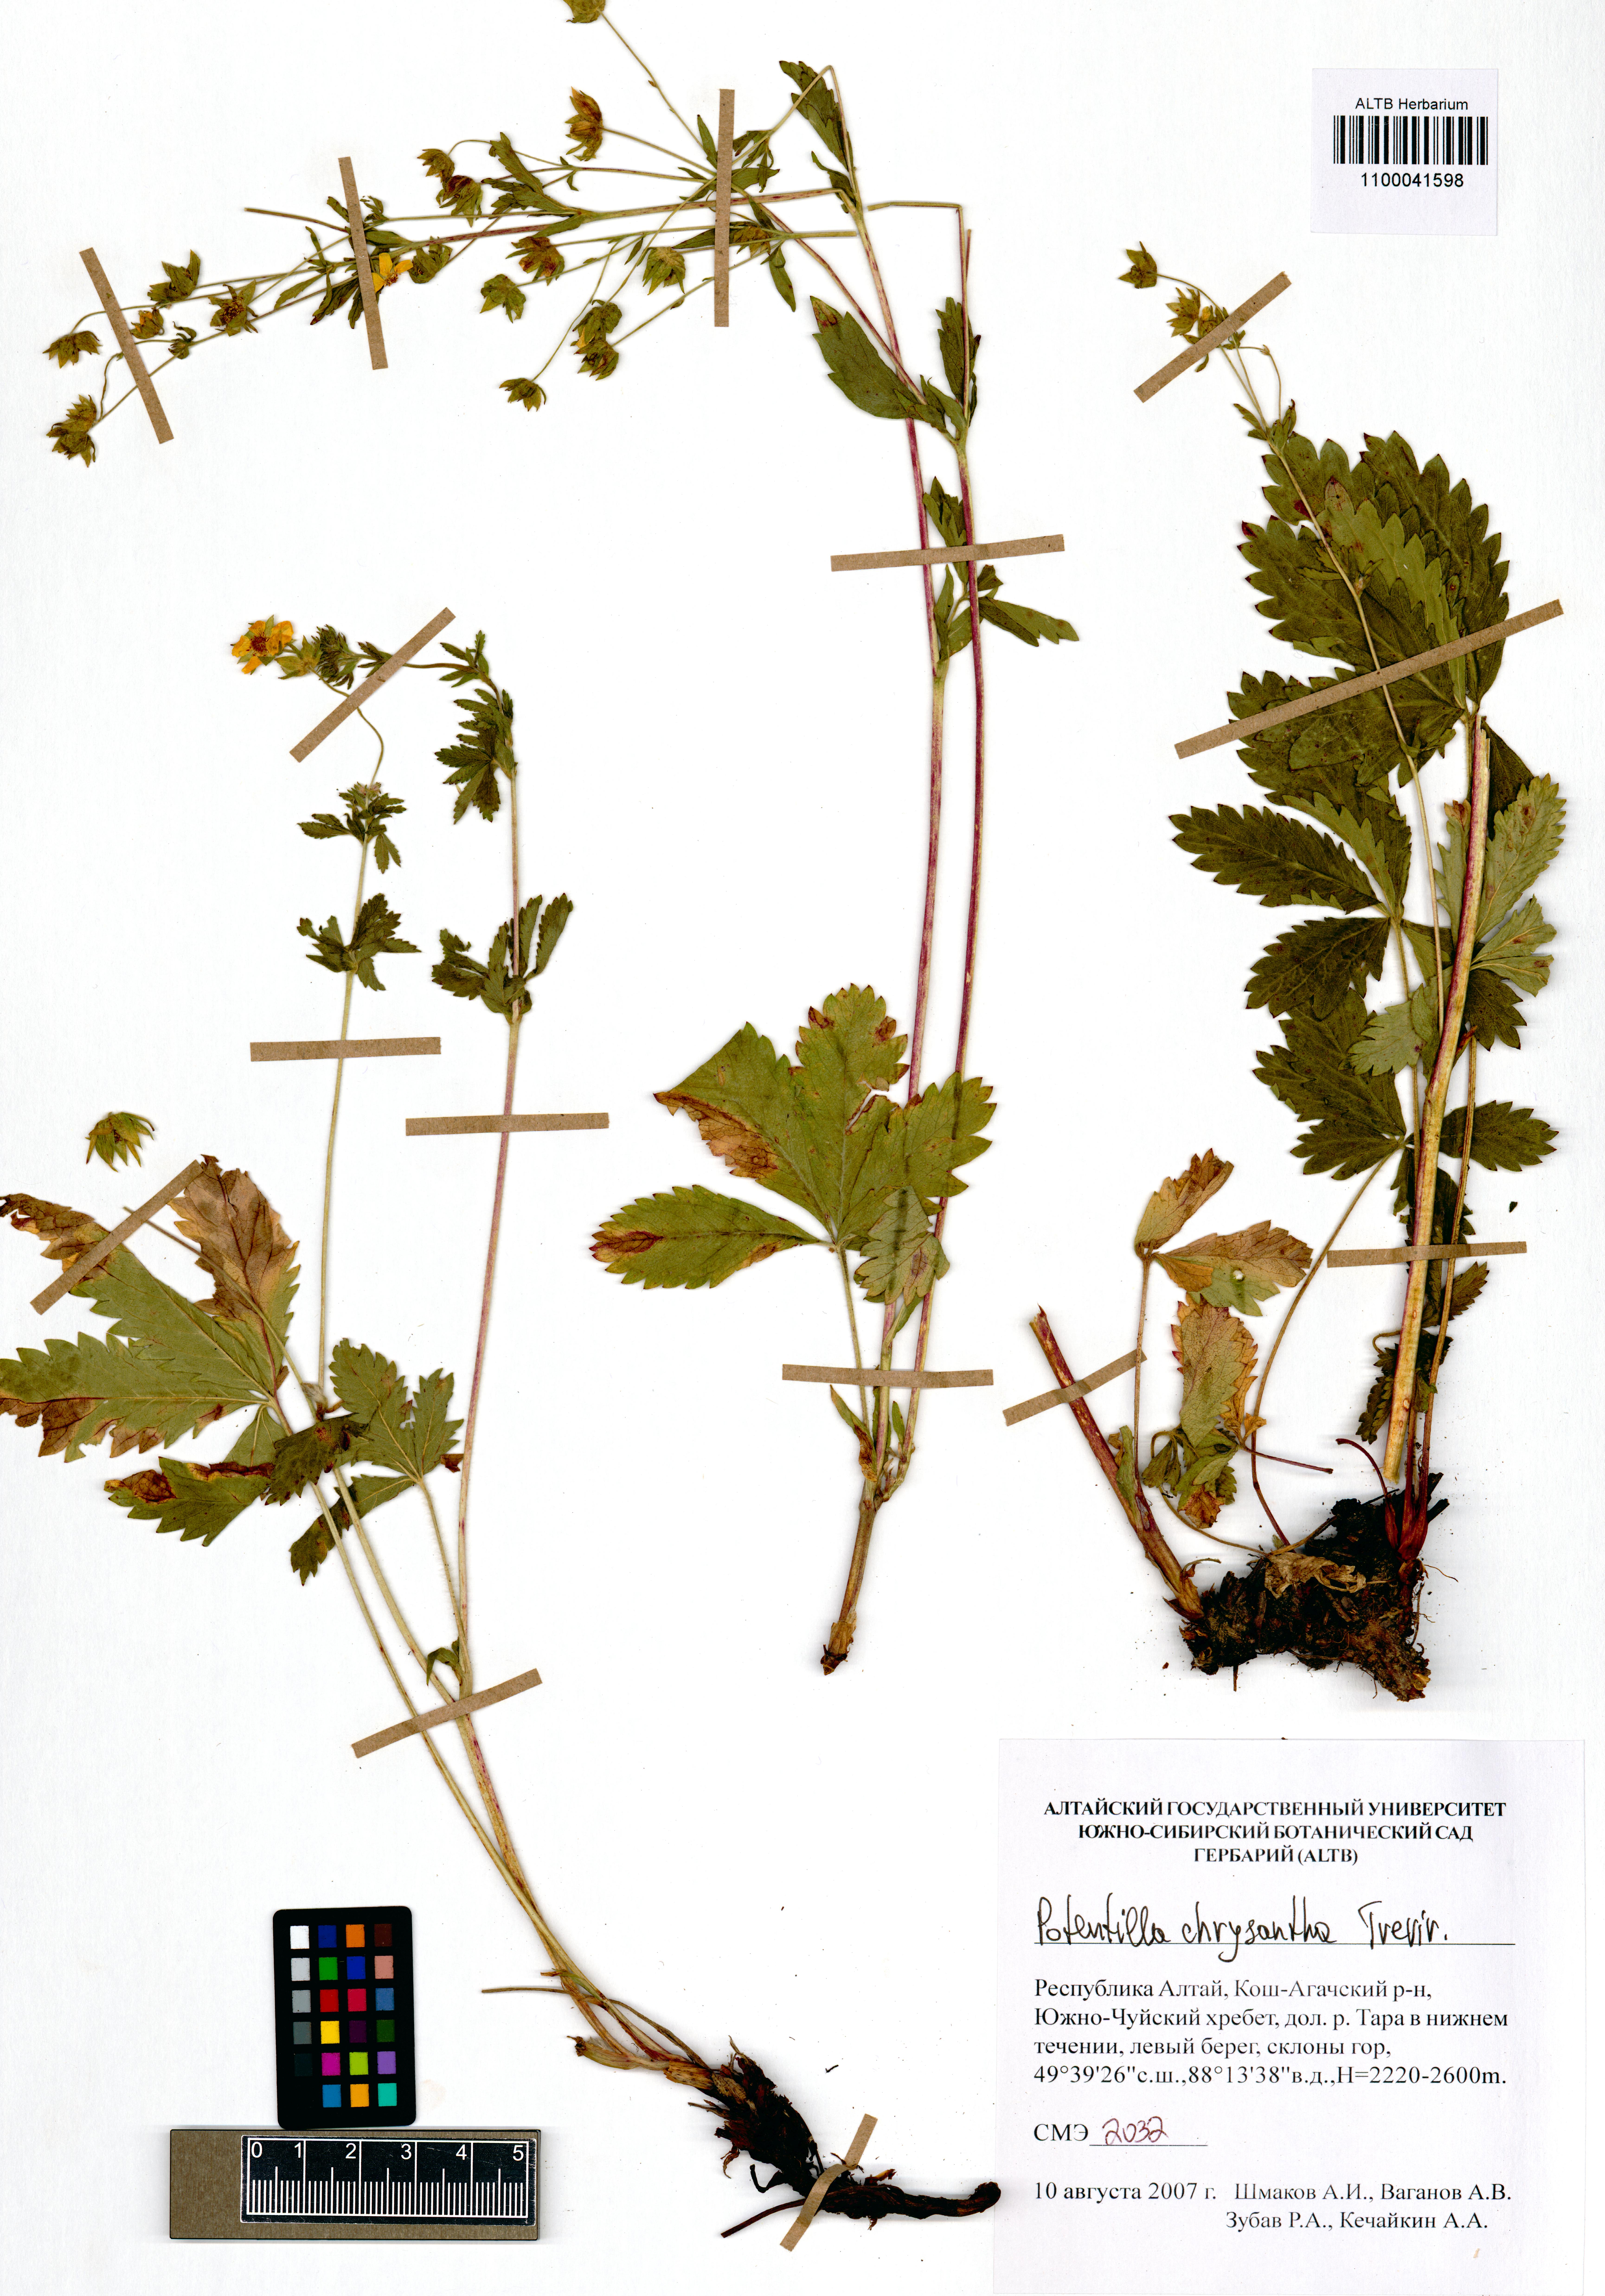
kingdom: Plantae
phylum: Tracheophyta
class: Magnoliopsida
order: Rosales
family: Rosaceae
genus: Potentilla
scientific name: Potentilla chrysantha
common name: Thuringian cinquefoil
